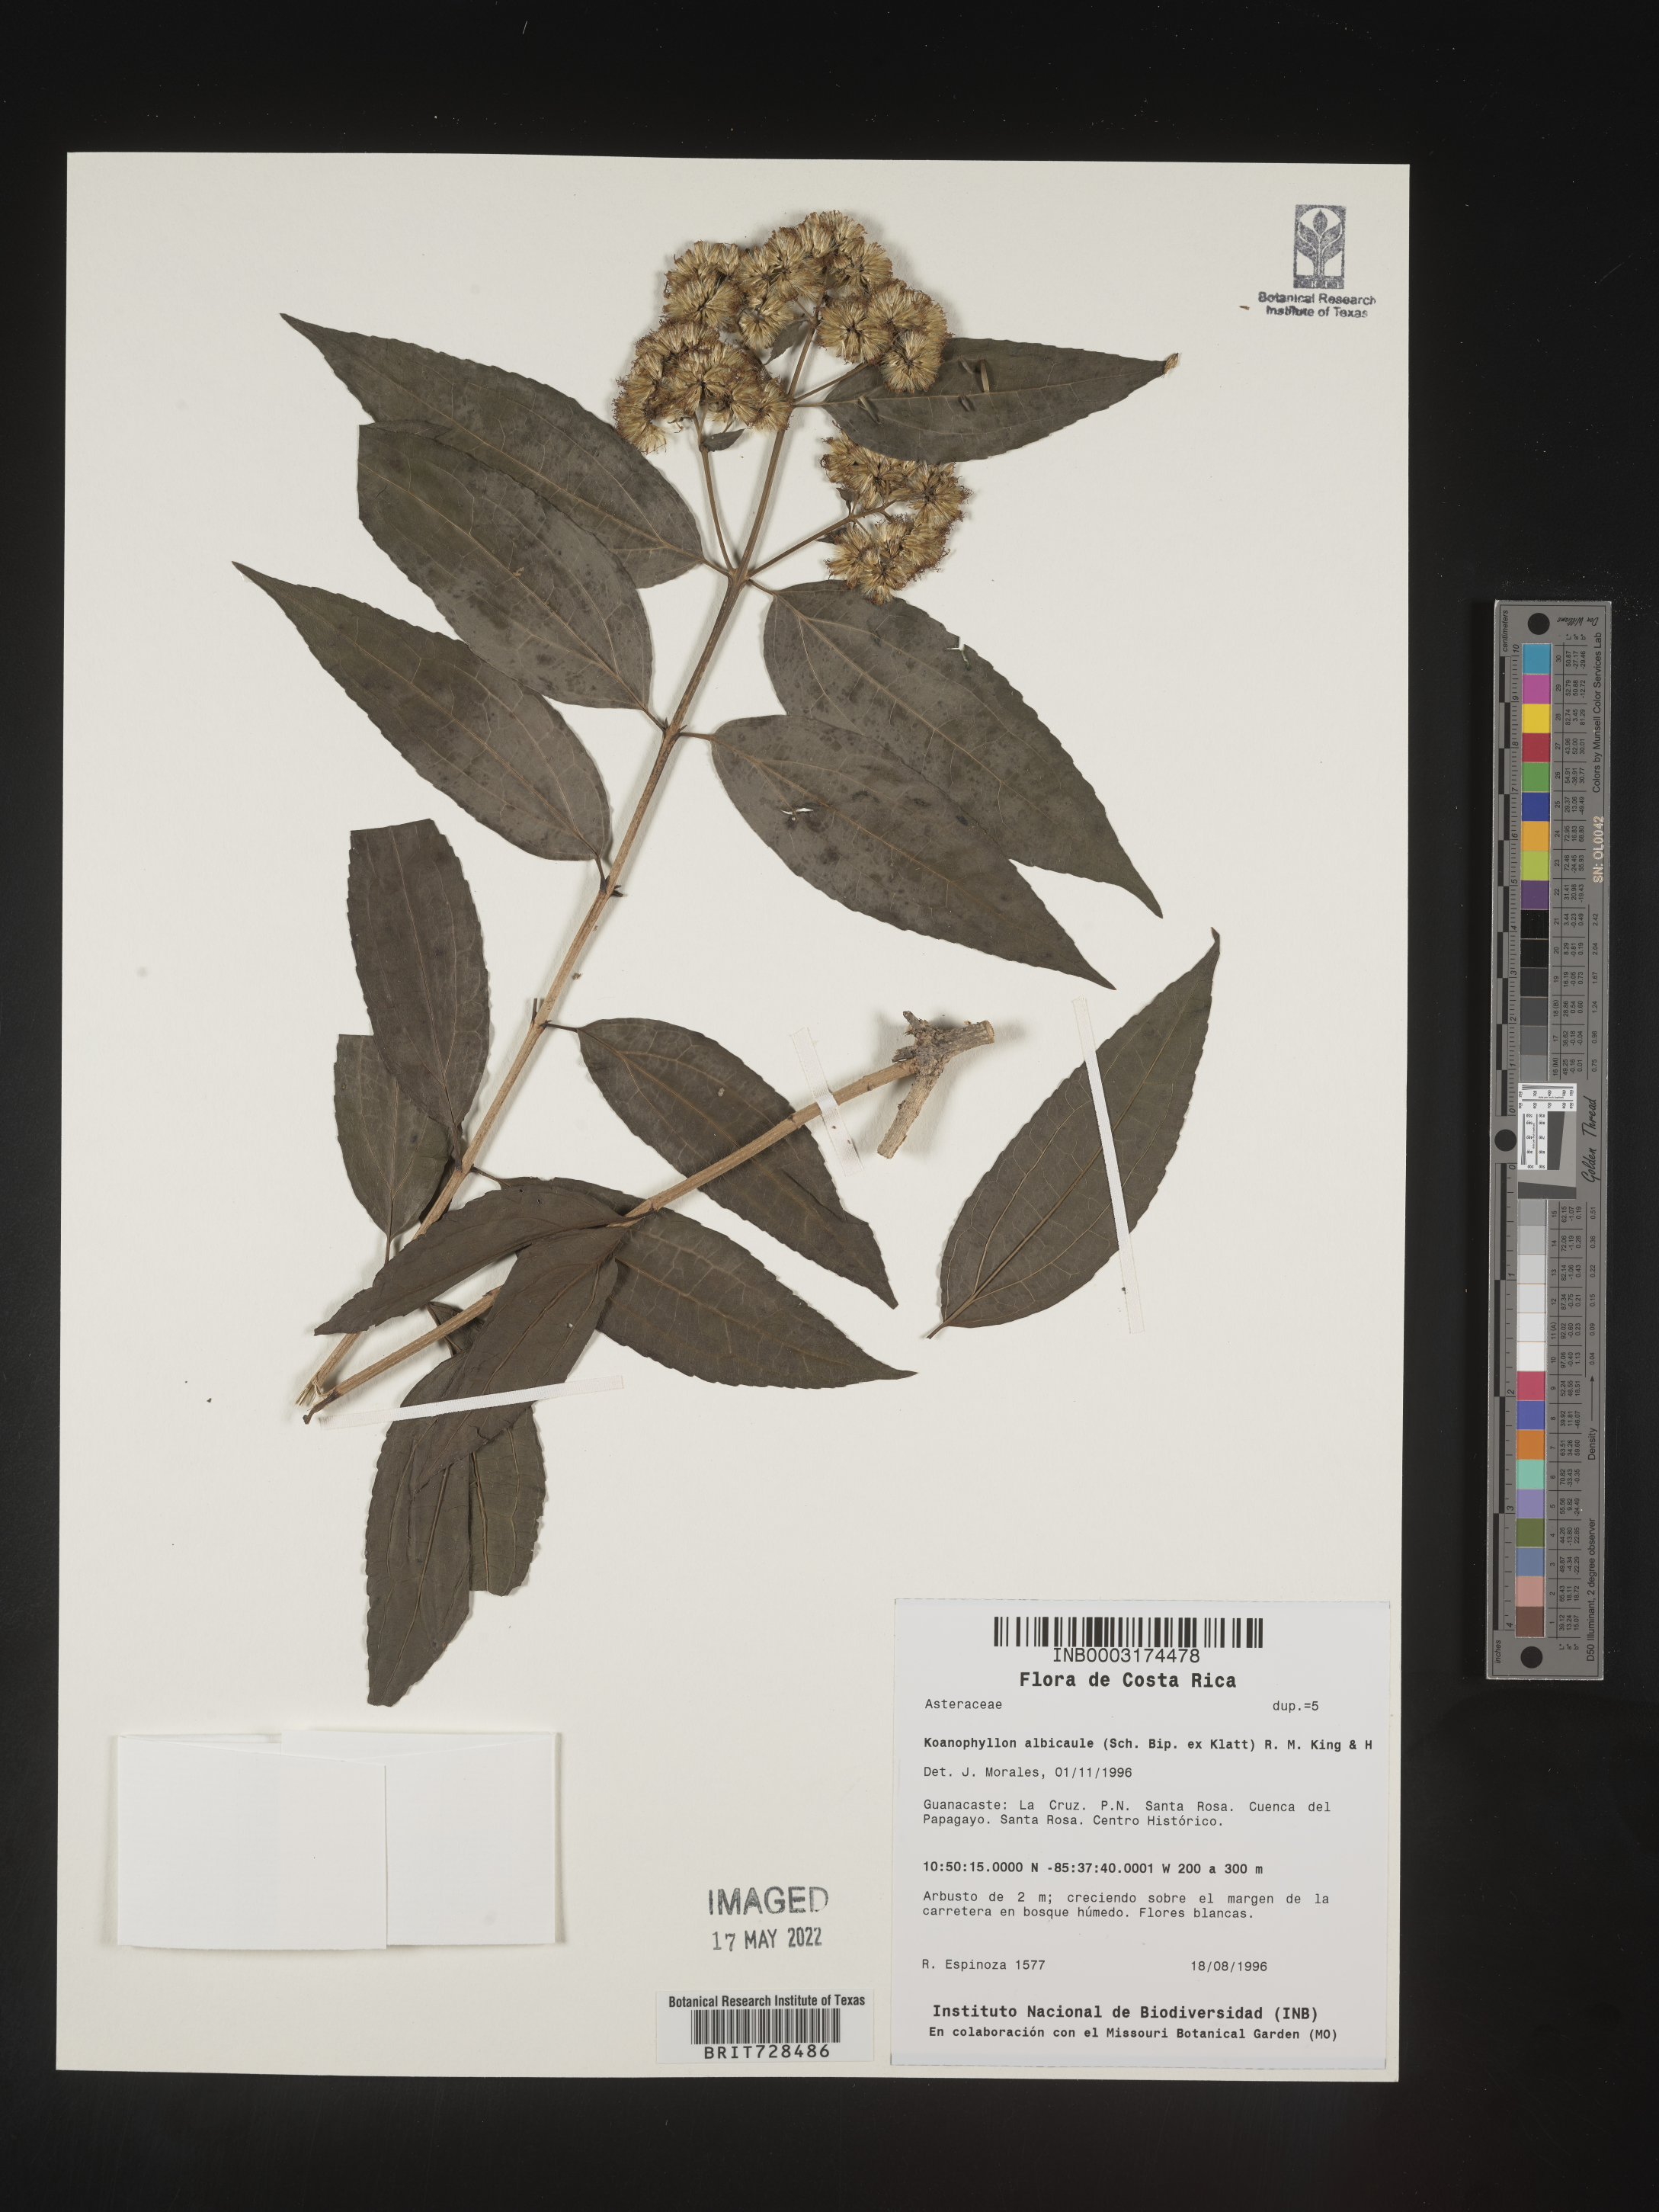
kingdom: Plantae
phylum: Tracheophyta
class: Magnoliopsida
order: Asterales
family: Asteraceae
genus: Koanophyllon
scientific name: Koanophyllon
